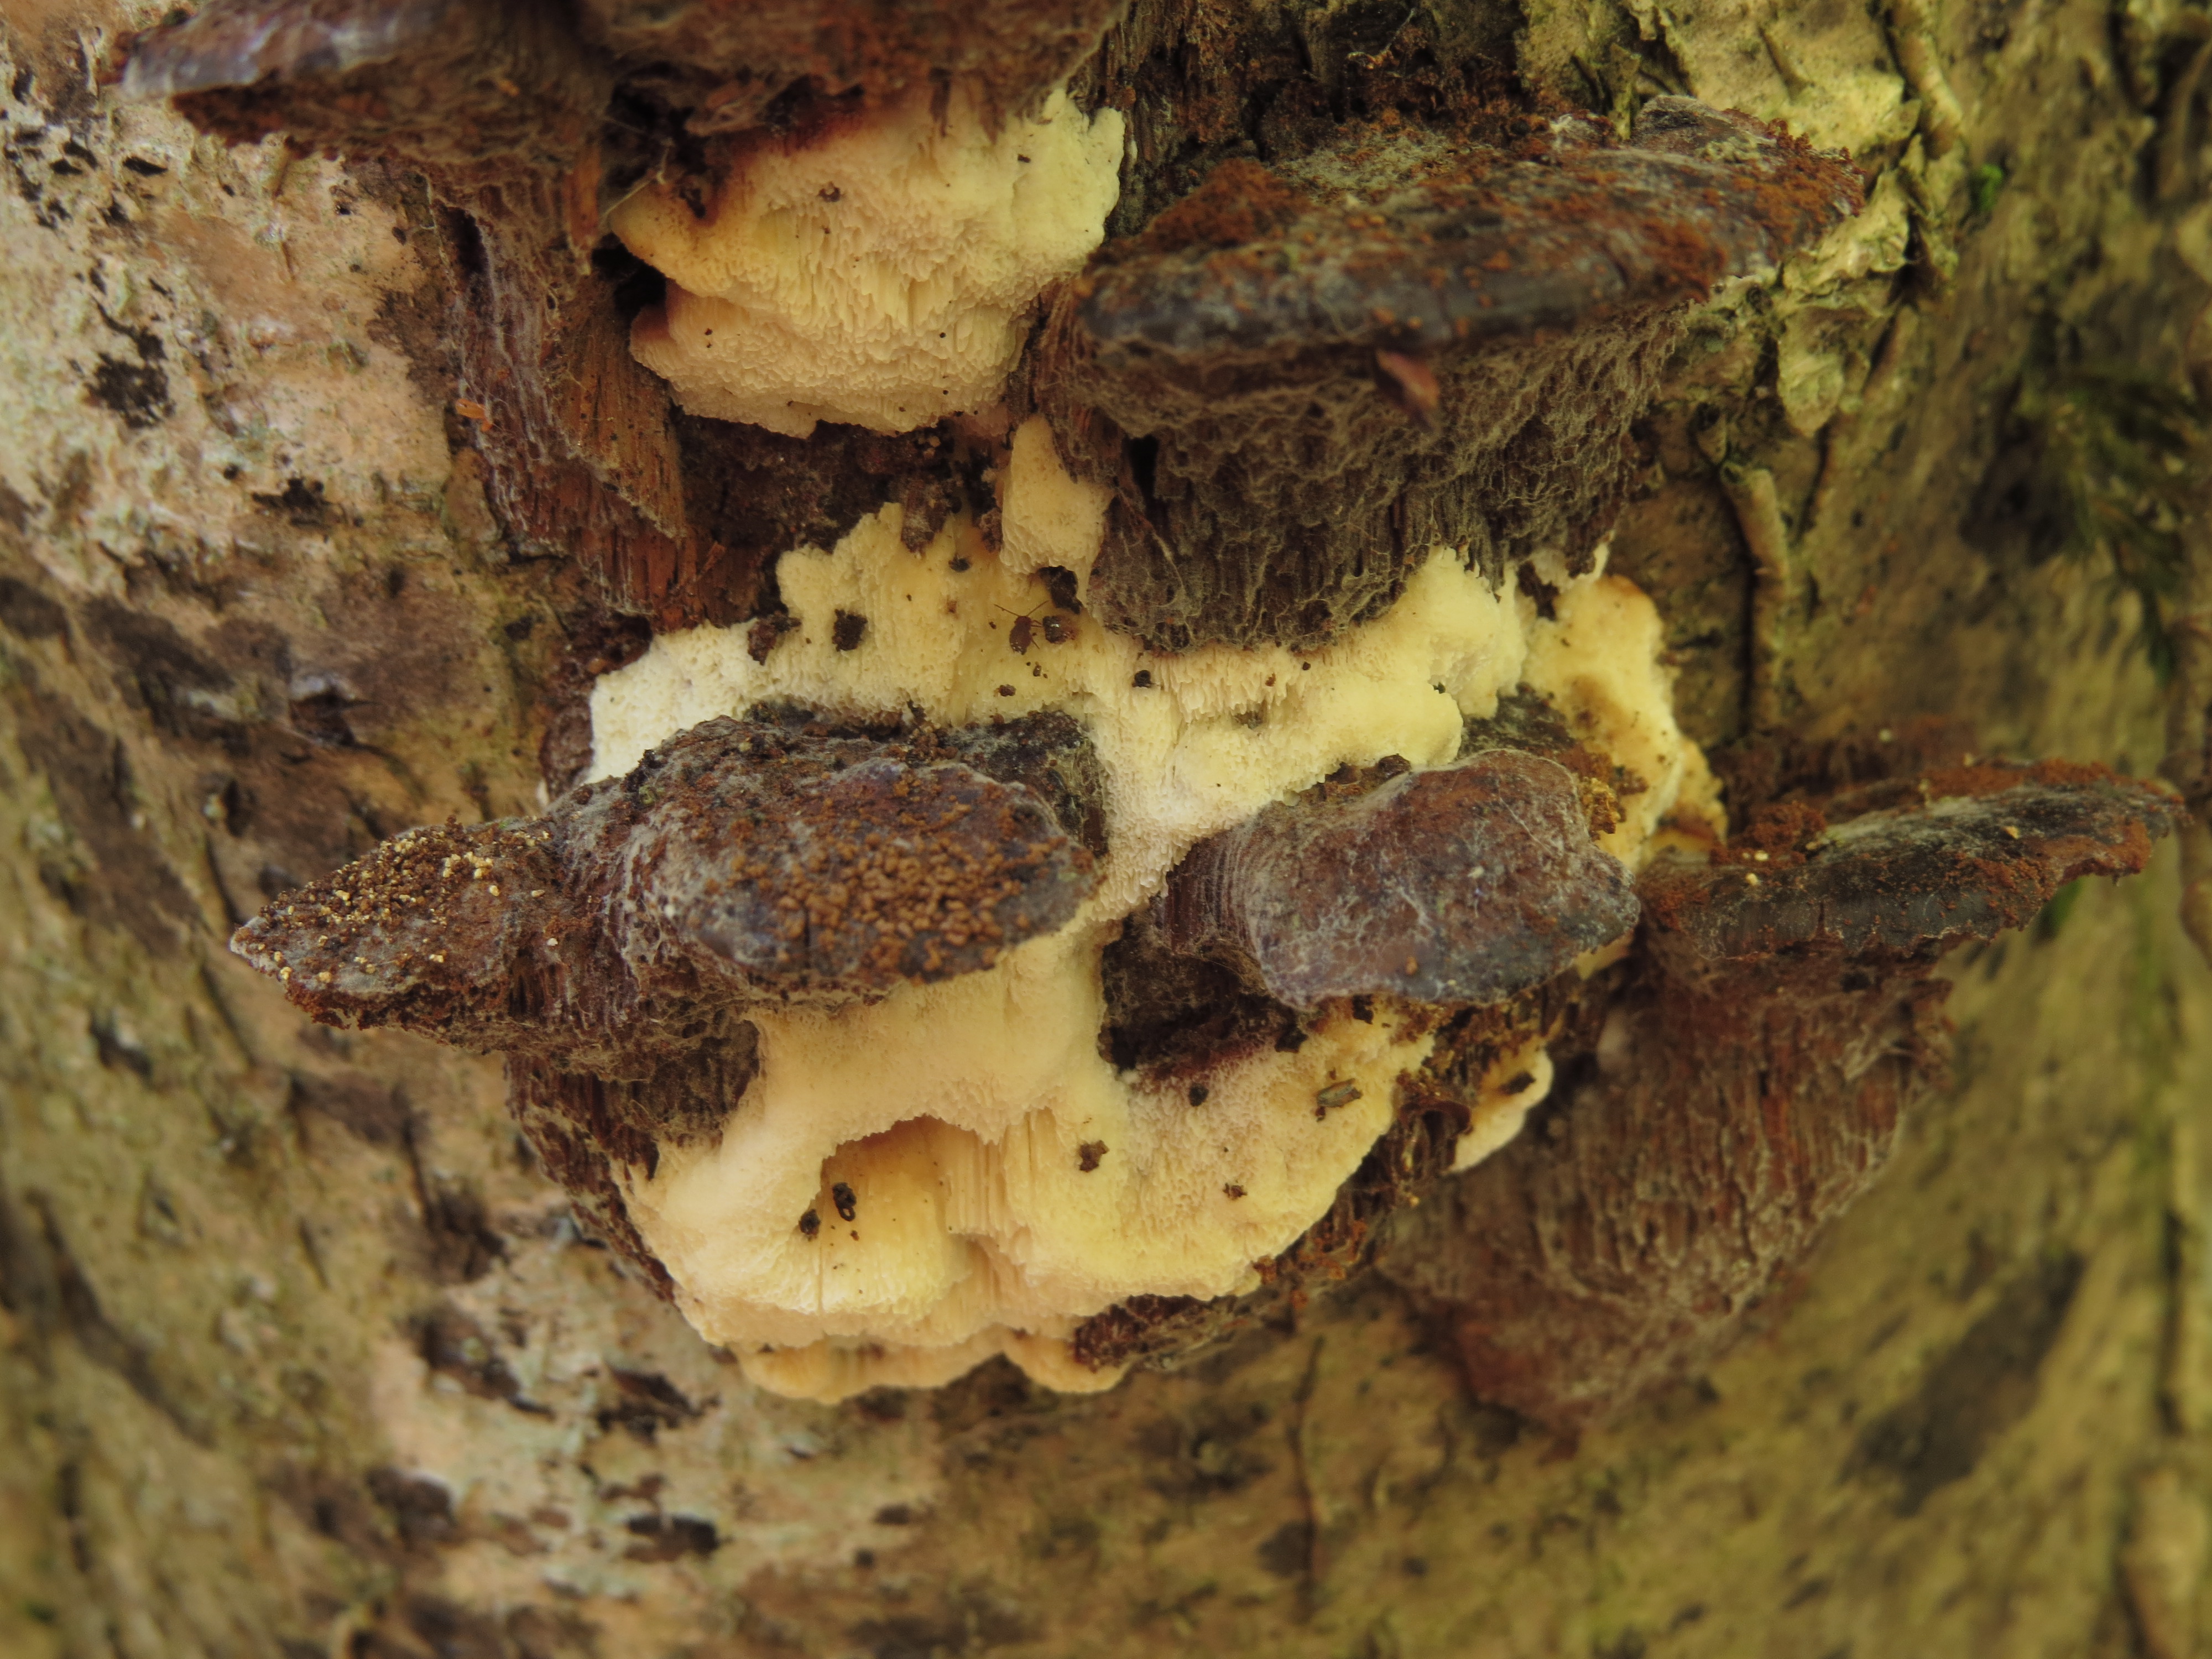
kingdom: Fungi
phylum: Basidiomycota
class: Agaricomycetes
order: Polyporales
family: Steccherinaceae
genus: Antrodiella
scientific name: Antrodiella serpula
